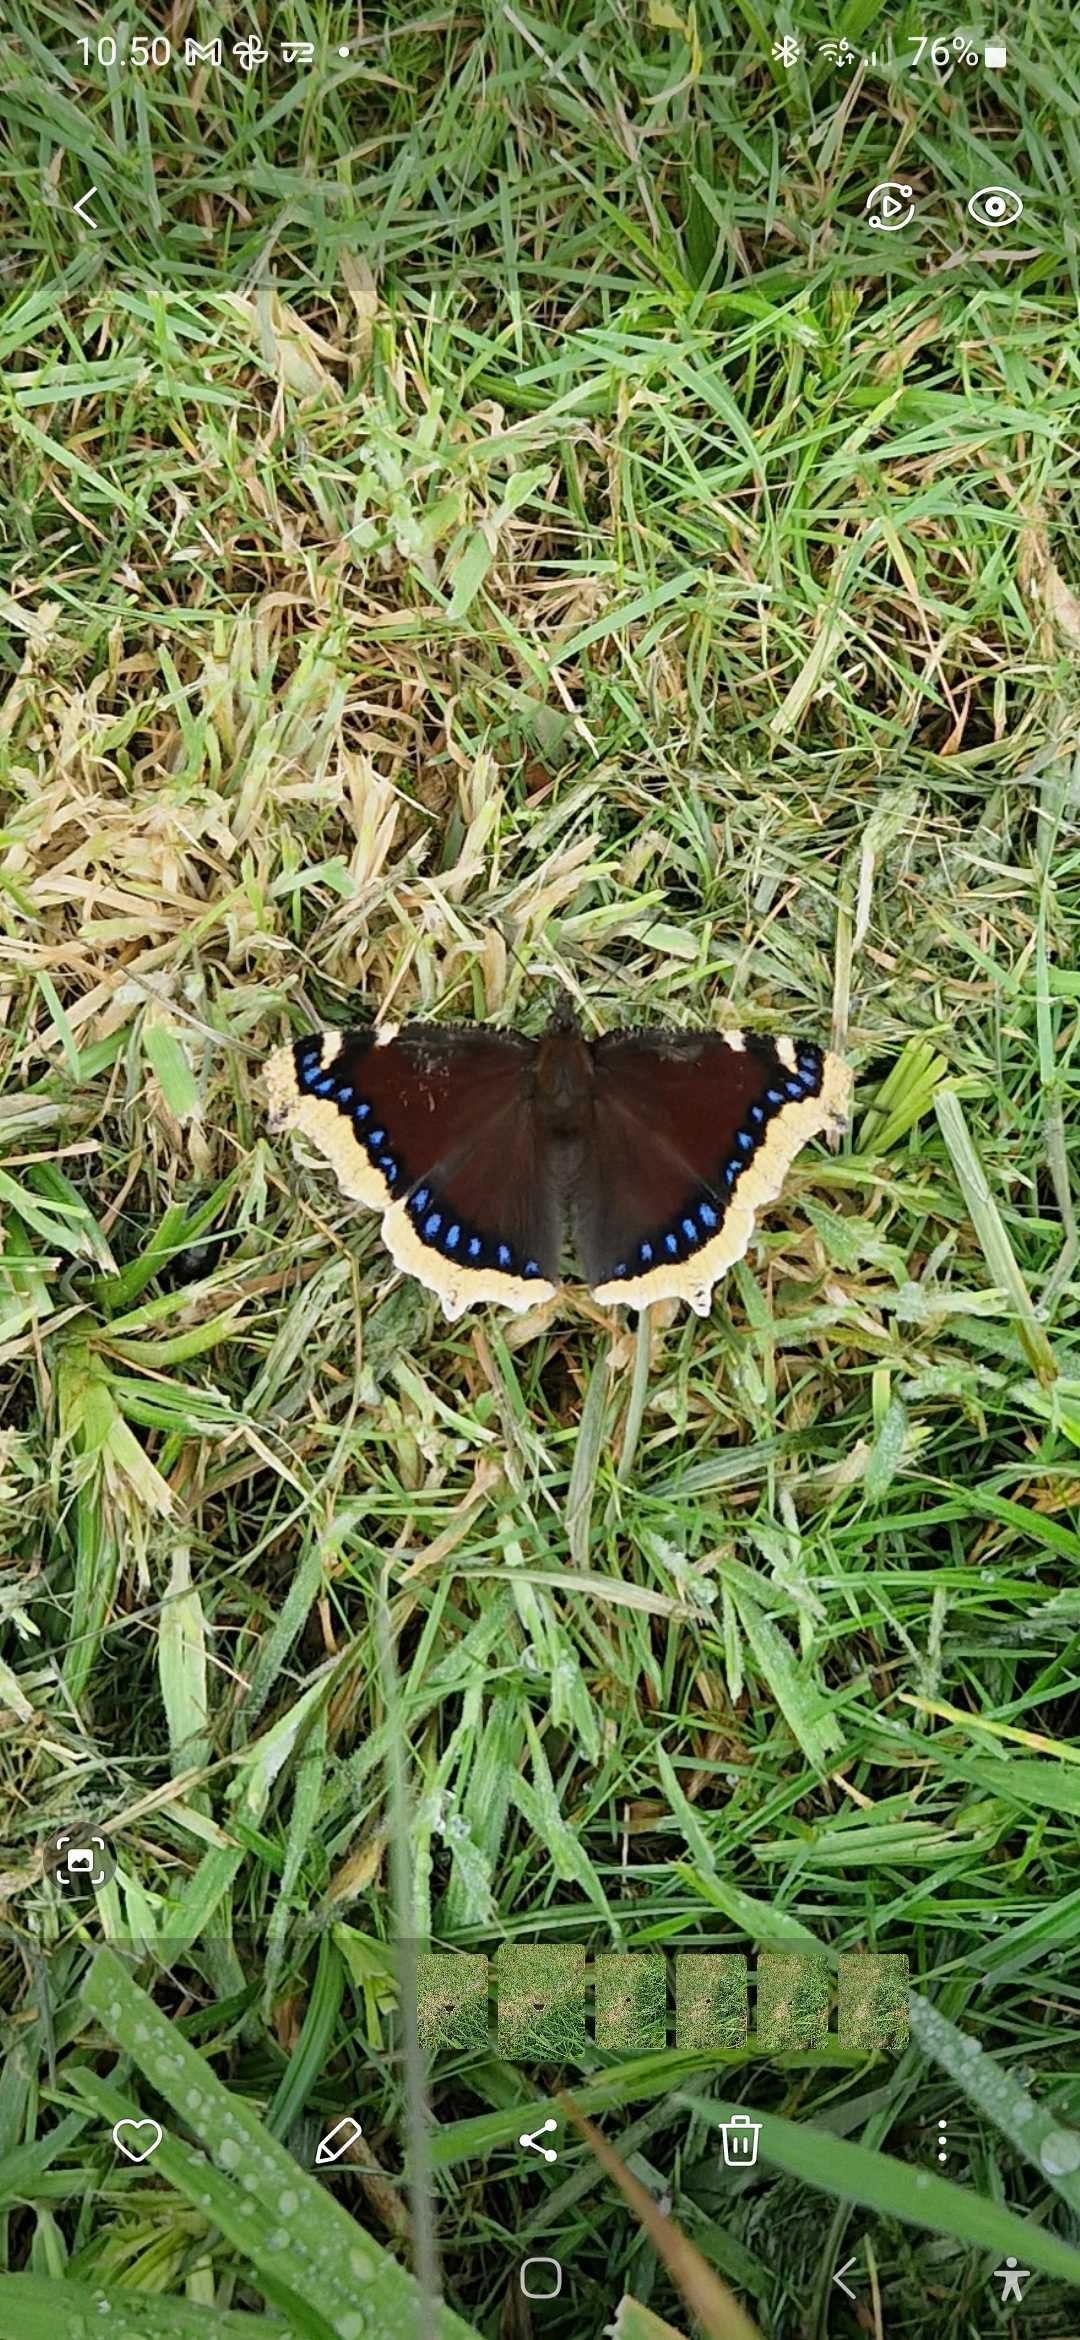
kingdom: Animalia
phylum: Arthropoda
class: Insecta
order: Lepidoptera
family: Nymphalidae
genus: Nymphalis
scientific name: Nymphalis antiopa
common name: Sørgekåbe
